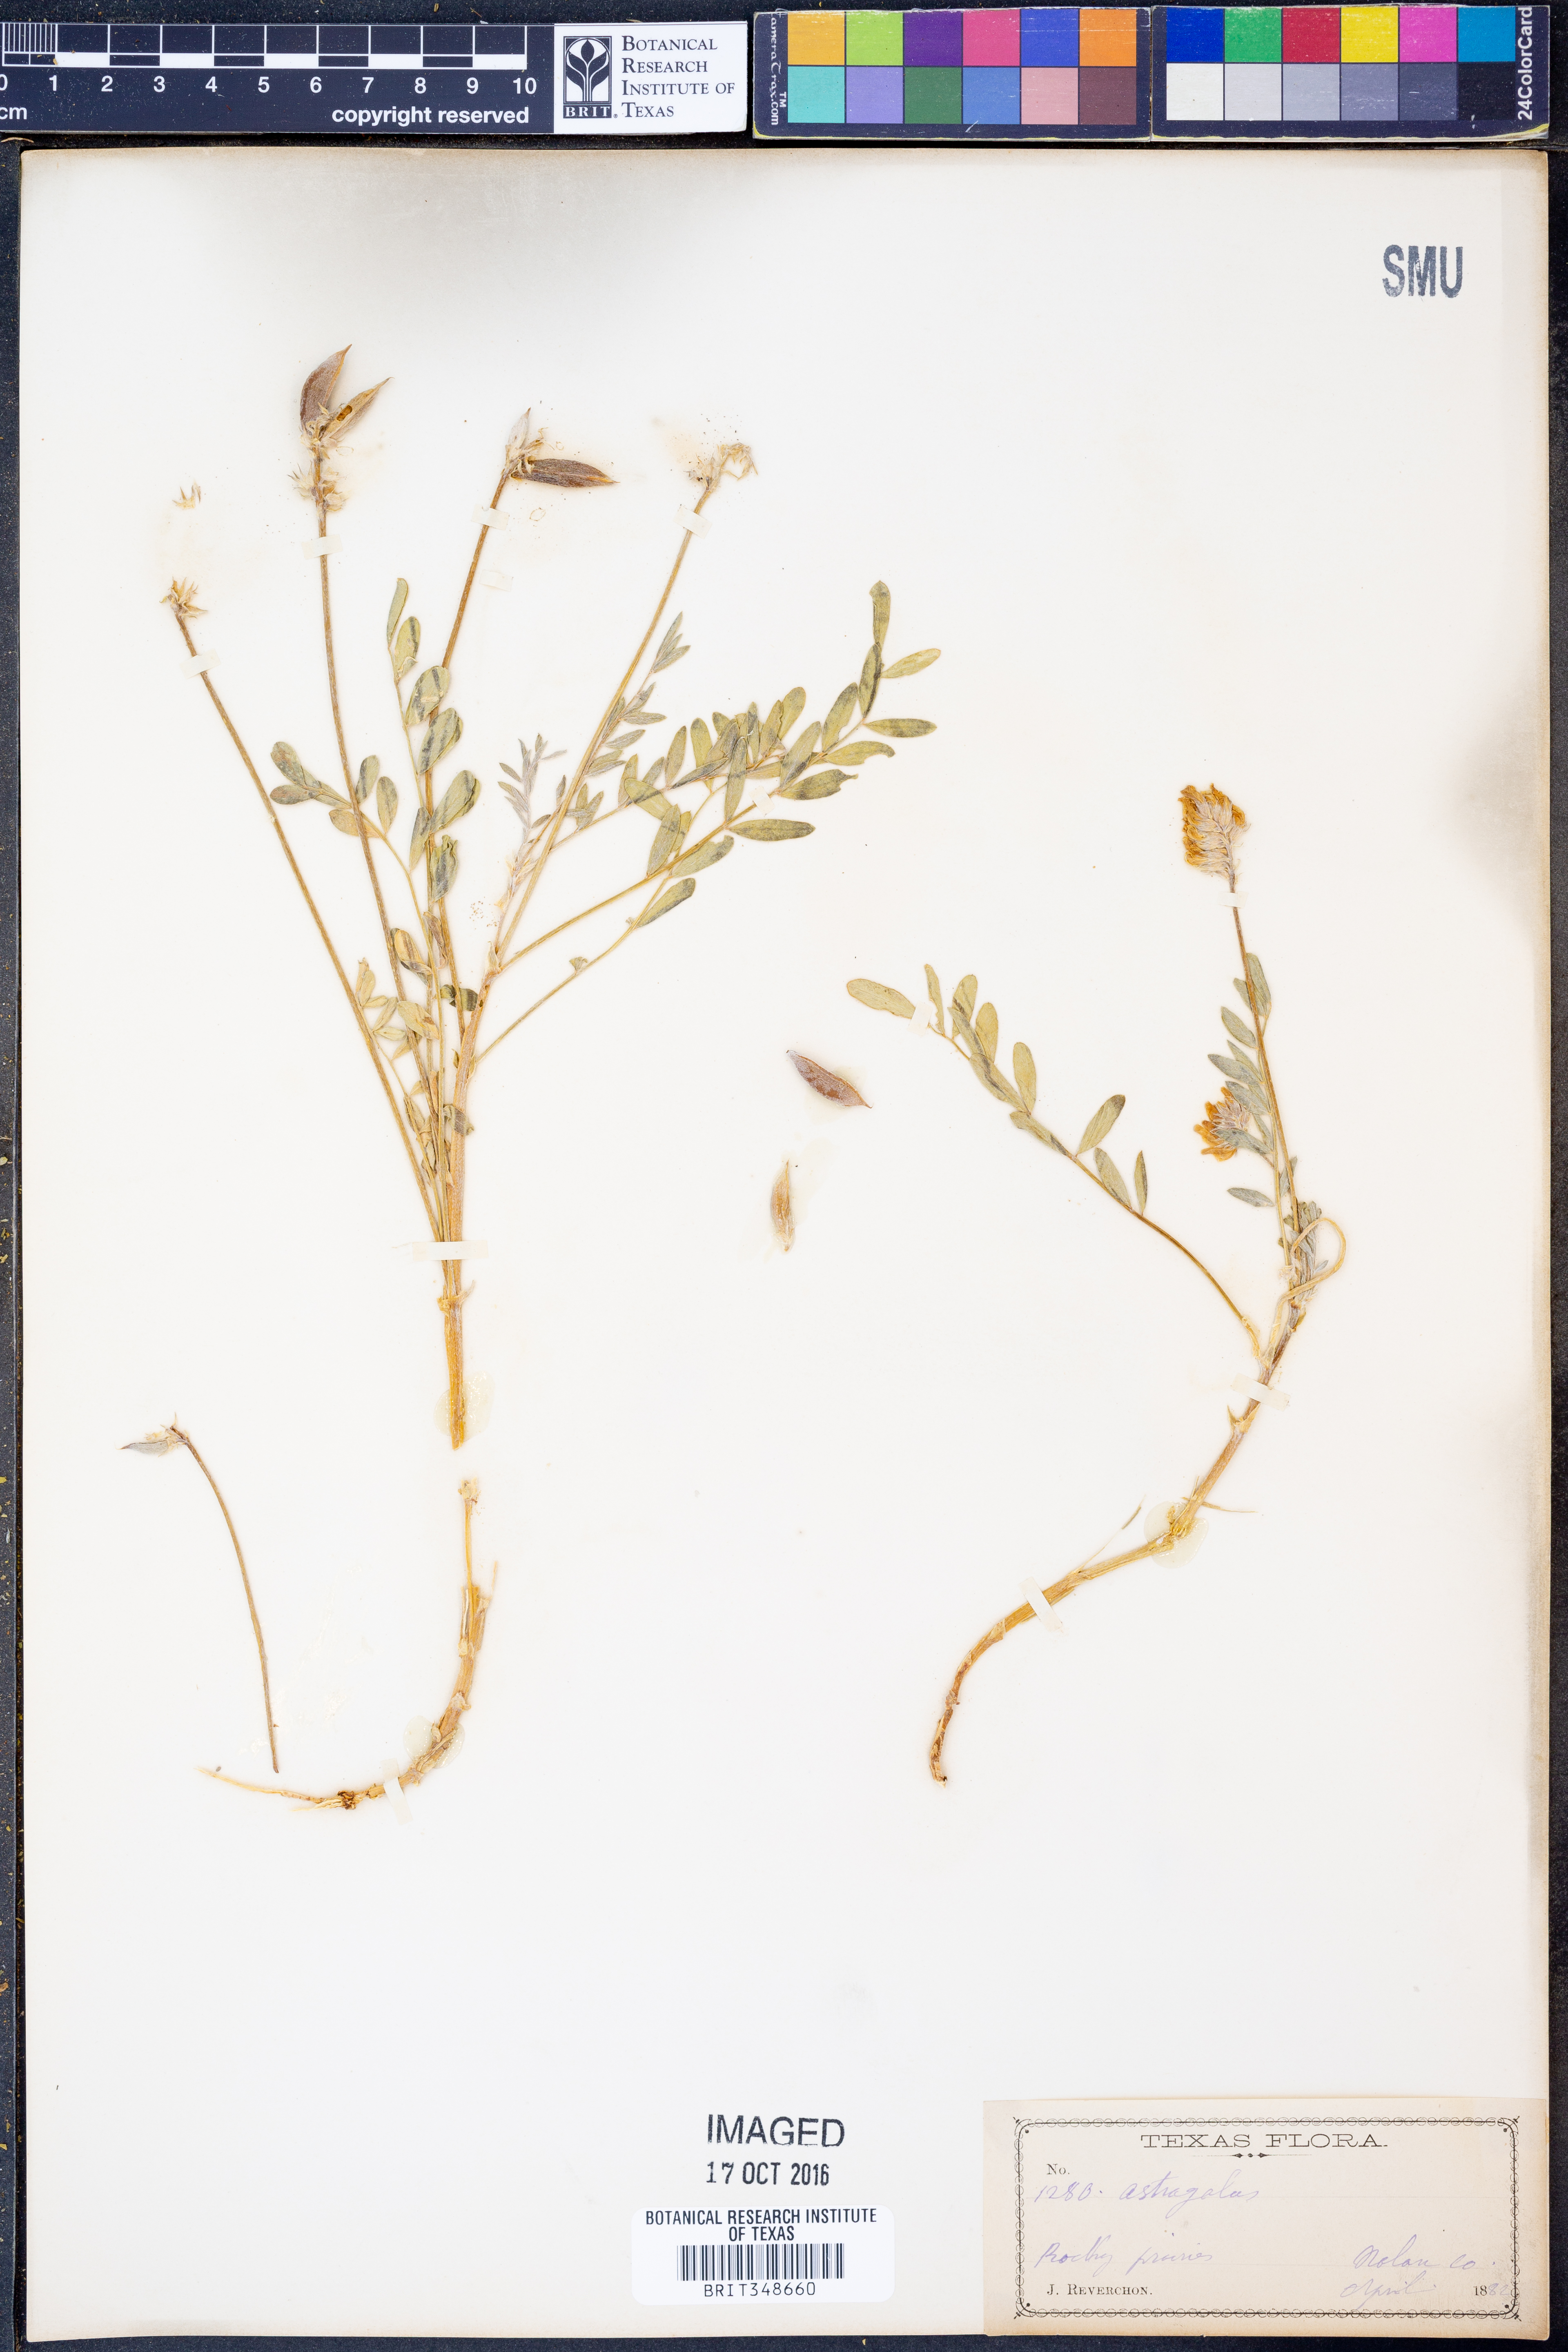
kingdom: Plantae
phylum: Tracheophyta
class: Magnoliopsida
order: Fabales
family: Fabaceae
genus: Astragalus
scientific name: Astragalus
